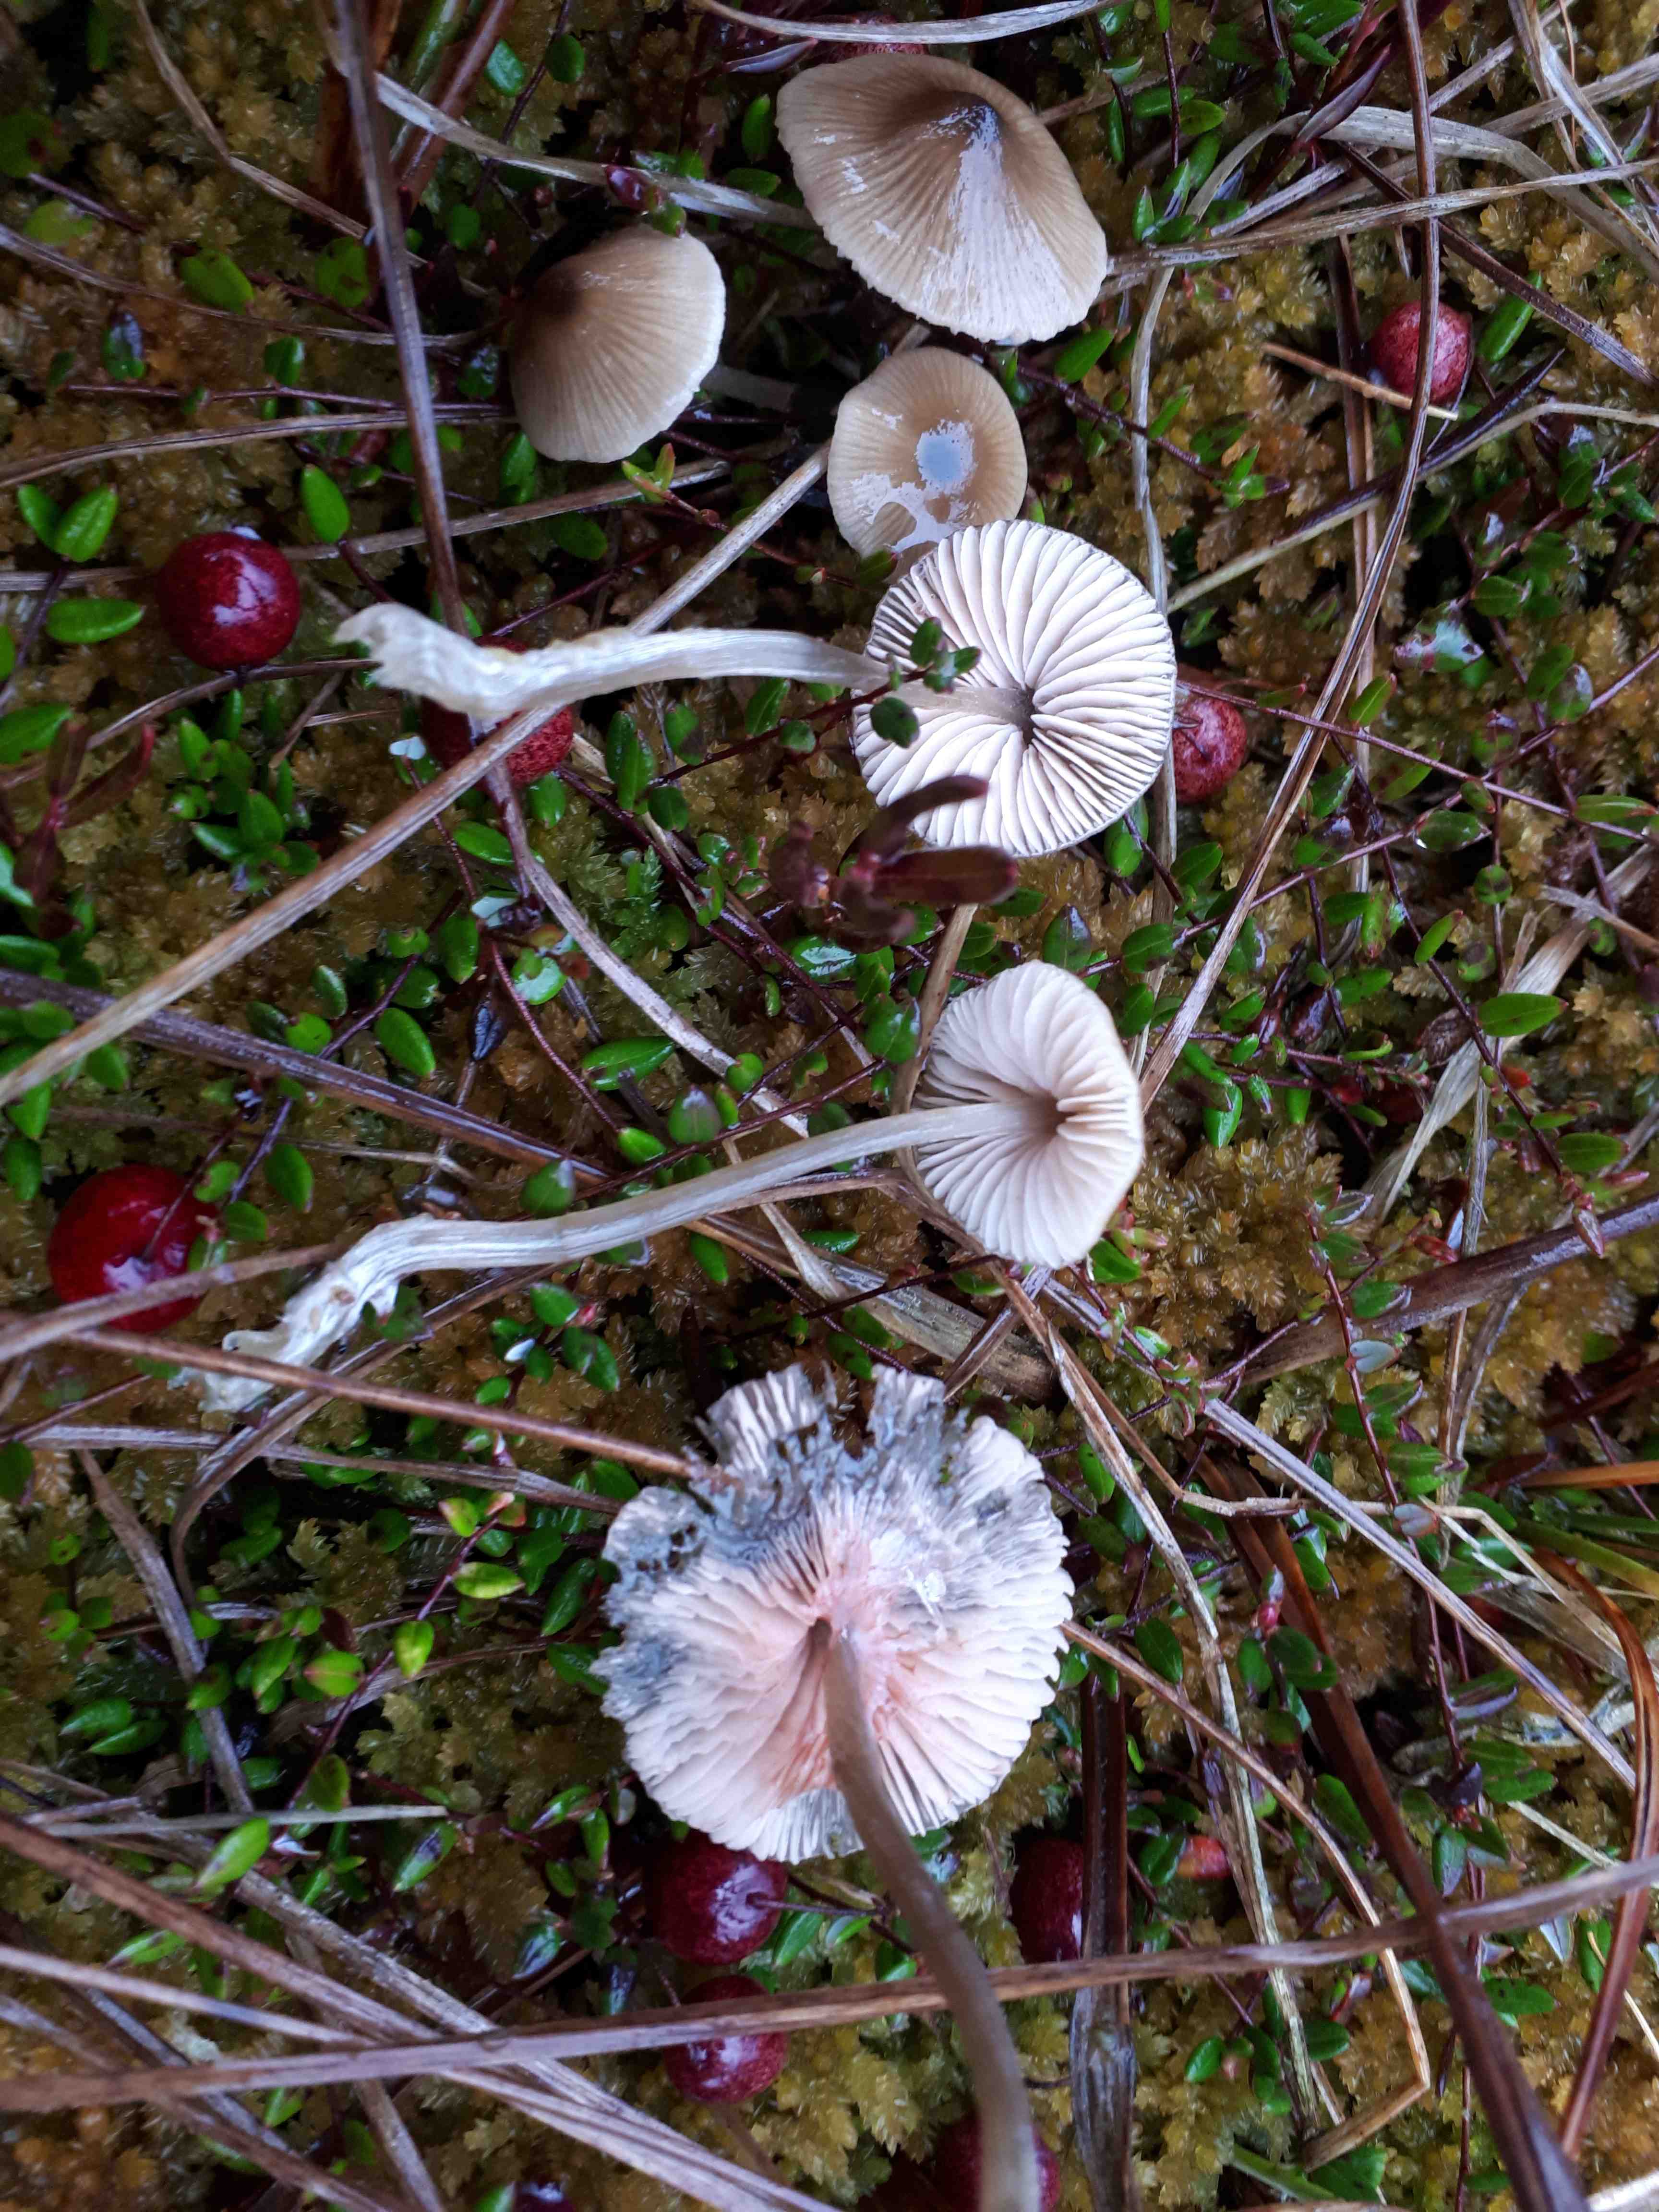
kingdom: Fungi
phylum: Basidiomycota
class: Agaricomycetes
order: Agaricales
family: Entolomataceae
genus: Entoloma
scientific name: Entoloma
